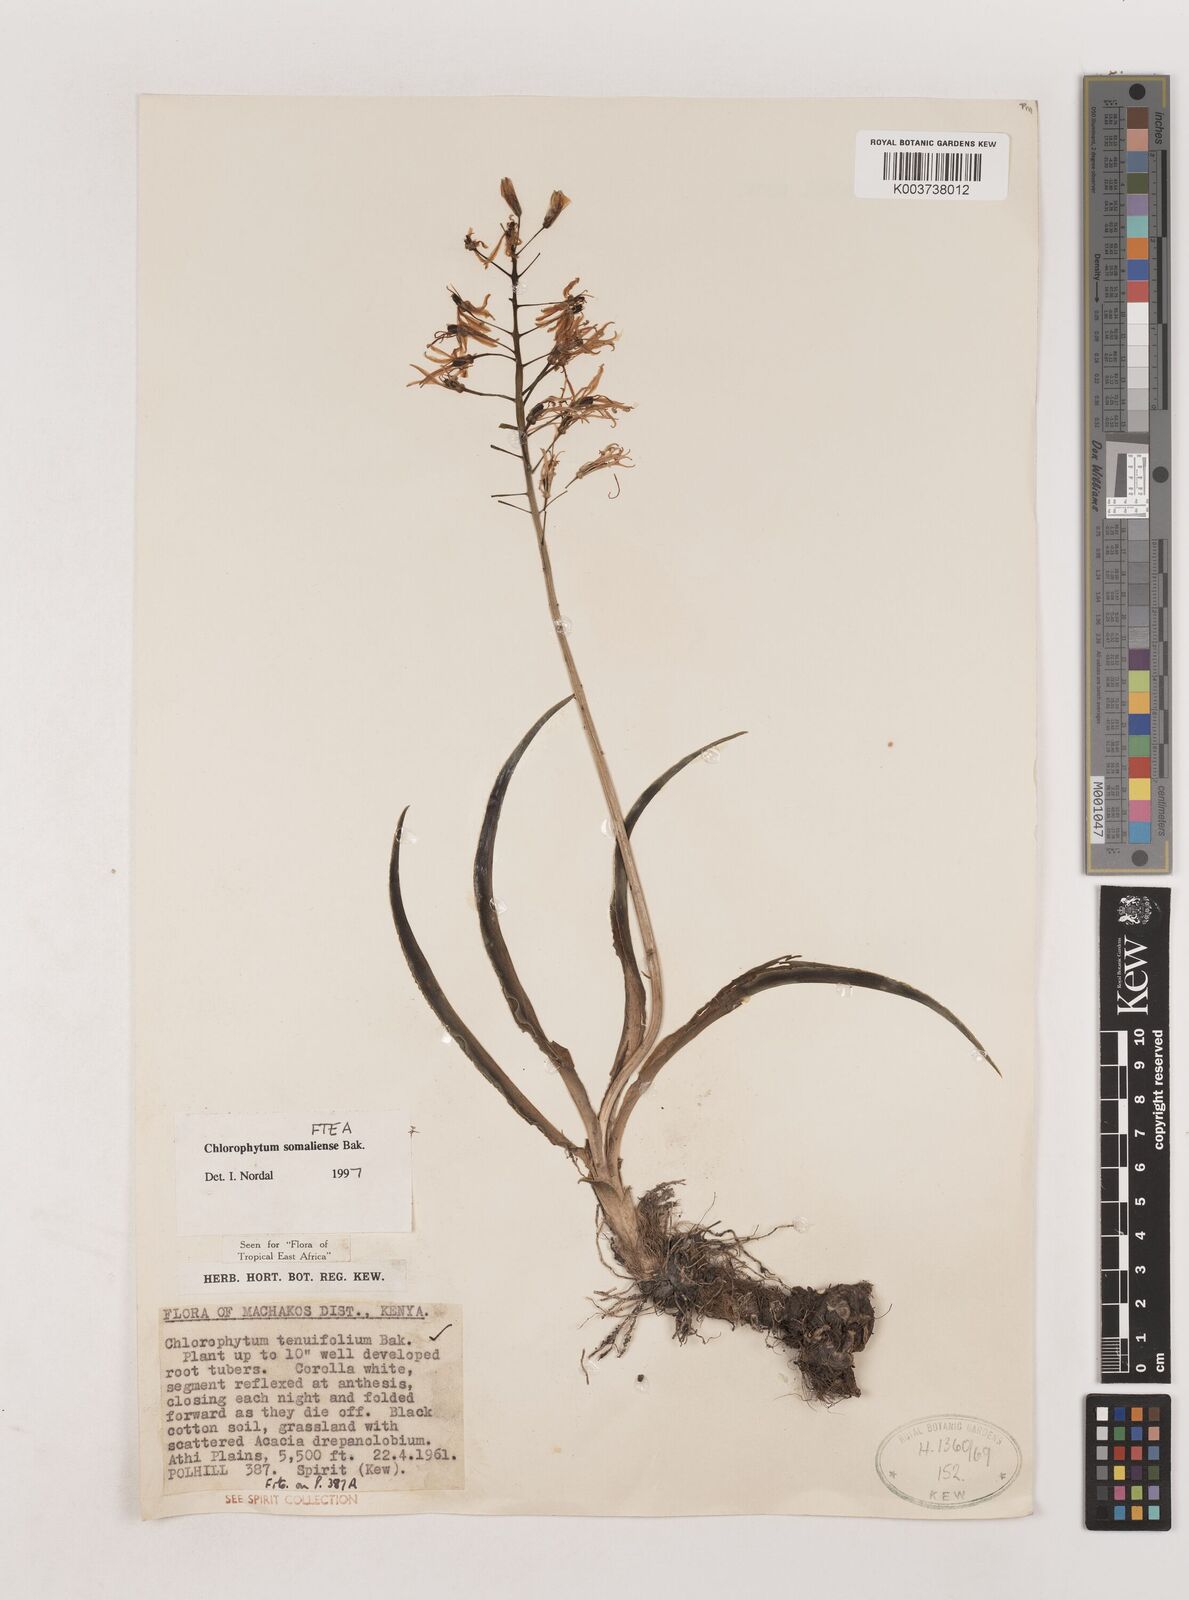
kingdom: Plantae
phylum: Tracheophyta
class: Liliopsida
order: Asparagales
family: Asparagaceae
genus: Chlorophytum
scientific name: Chlorophytum somaliense
